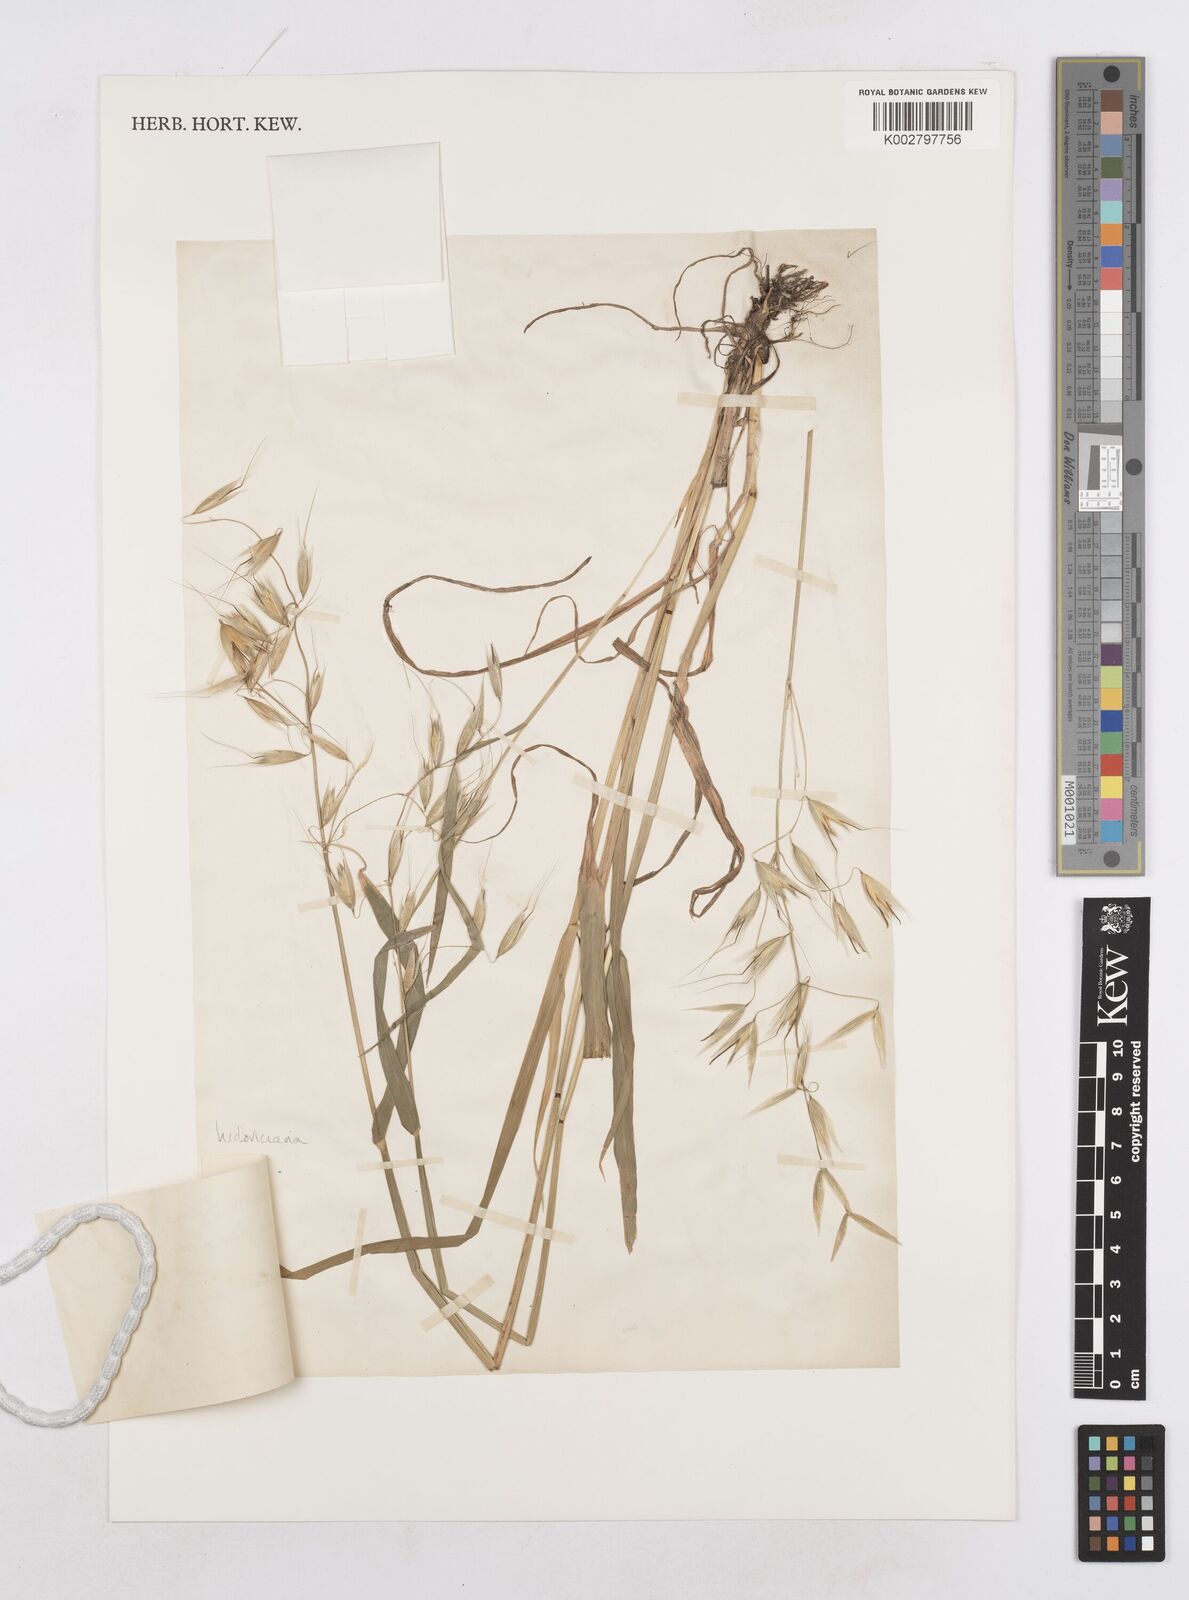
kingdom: Plantae
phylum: Tracheophyta
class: Liliopsida
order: Poales
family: Poaceae
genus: Avena
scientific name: Avena sterilis
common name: Animated oat
